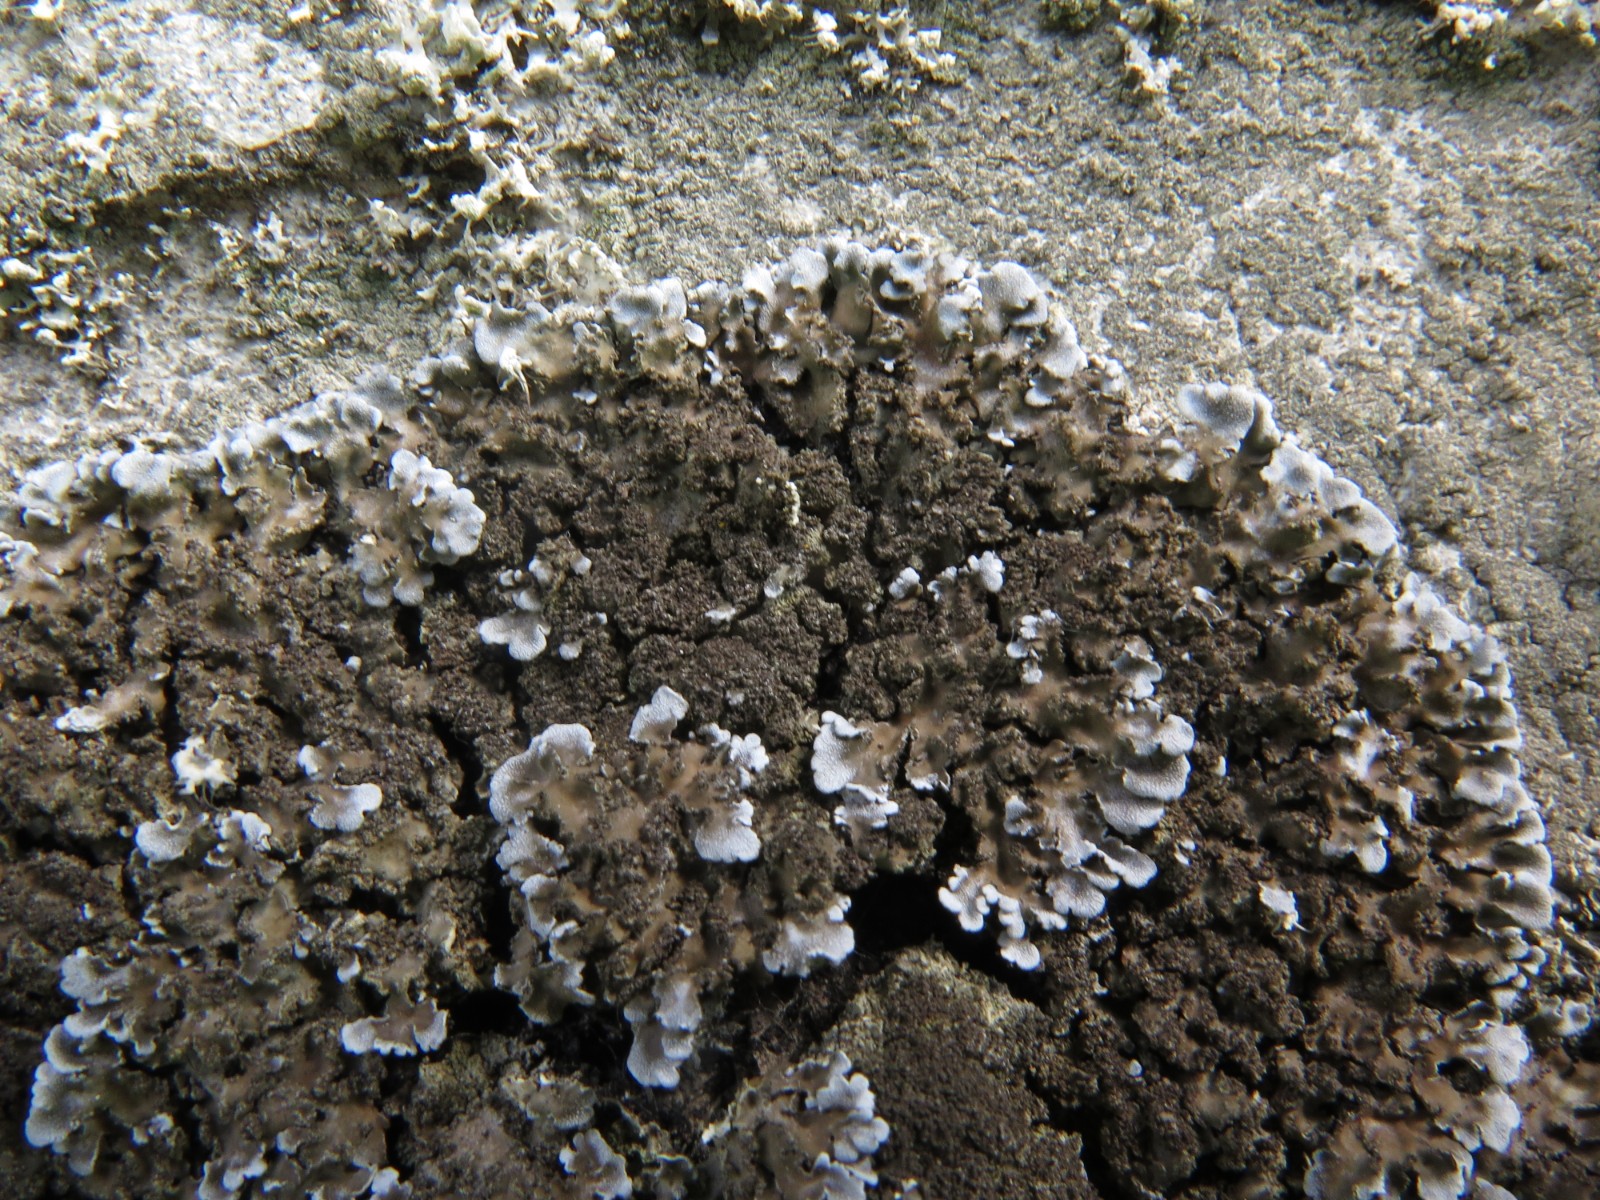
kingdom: Fungi
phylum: Ascomycota
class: Lecanoromycetes
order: Caliciales
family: Physciaceae
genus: Physconia
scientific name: Physconia
